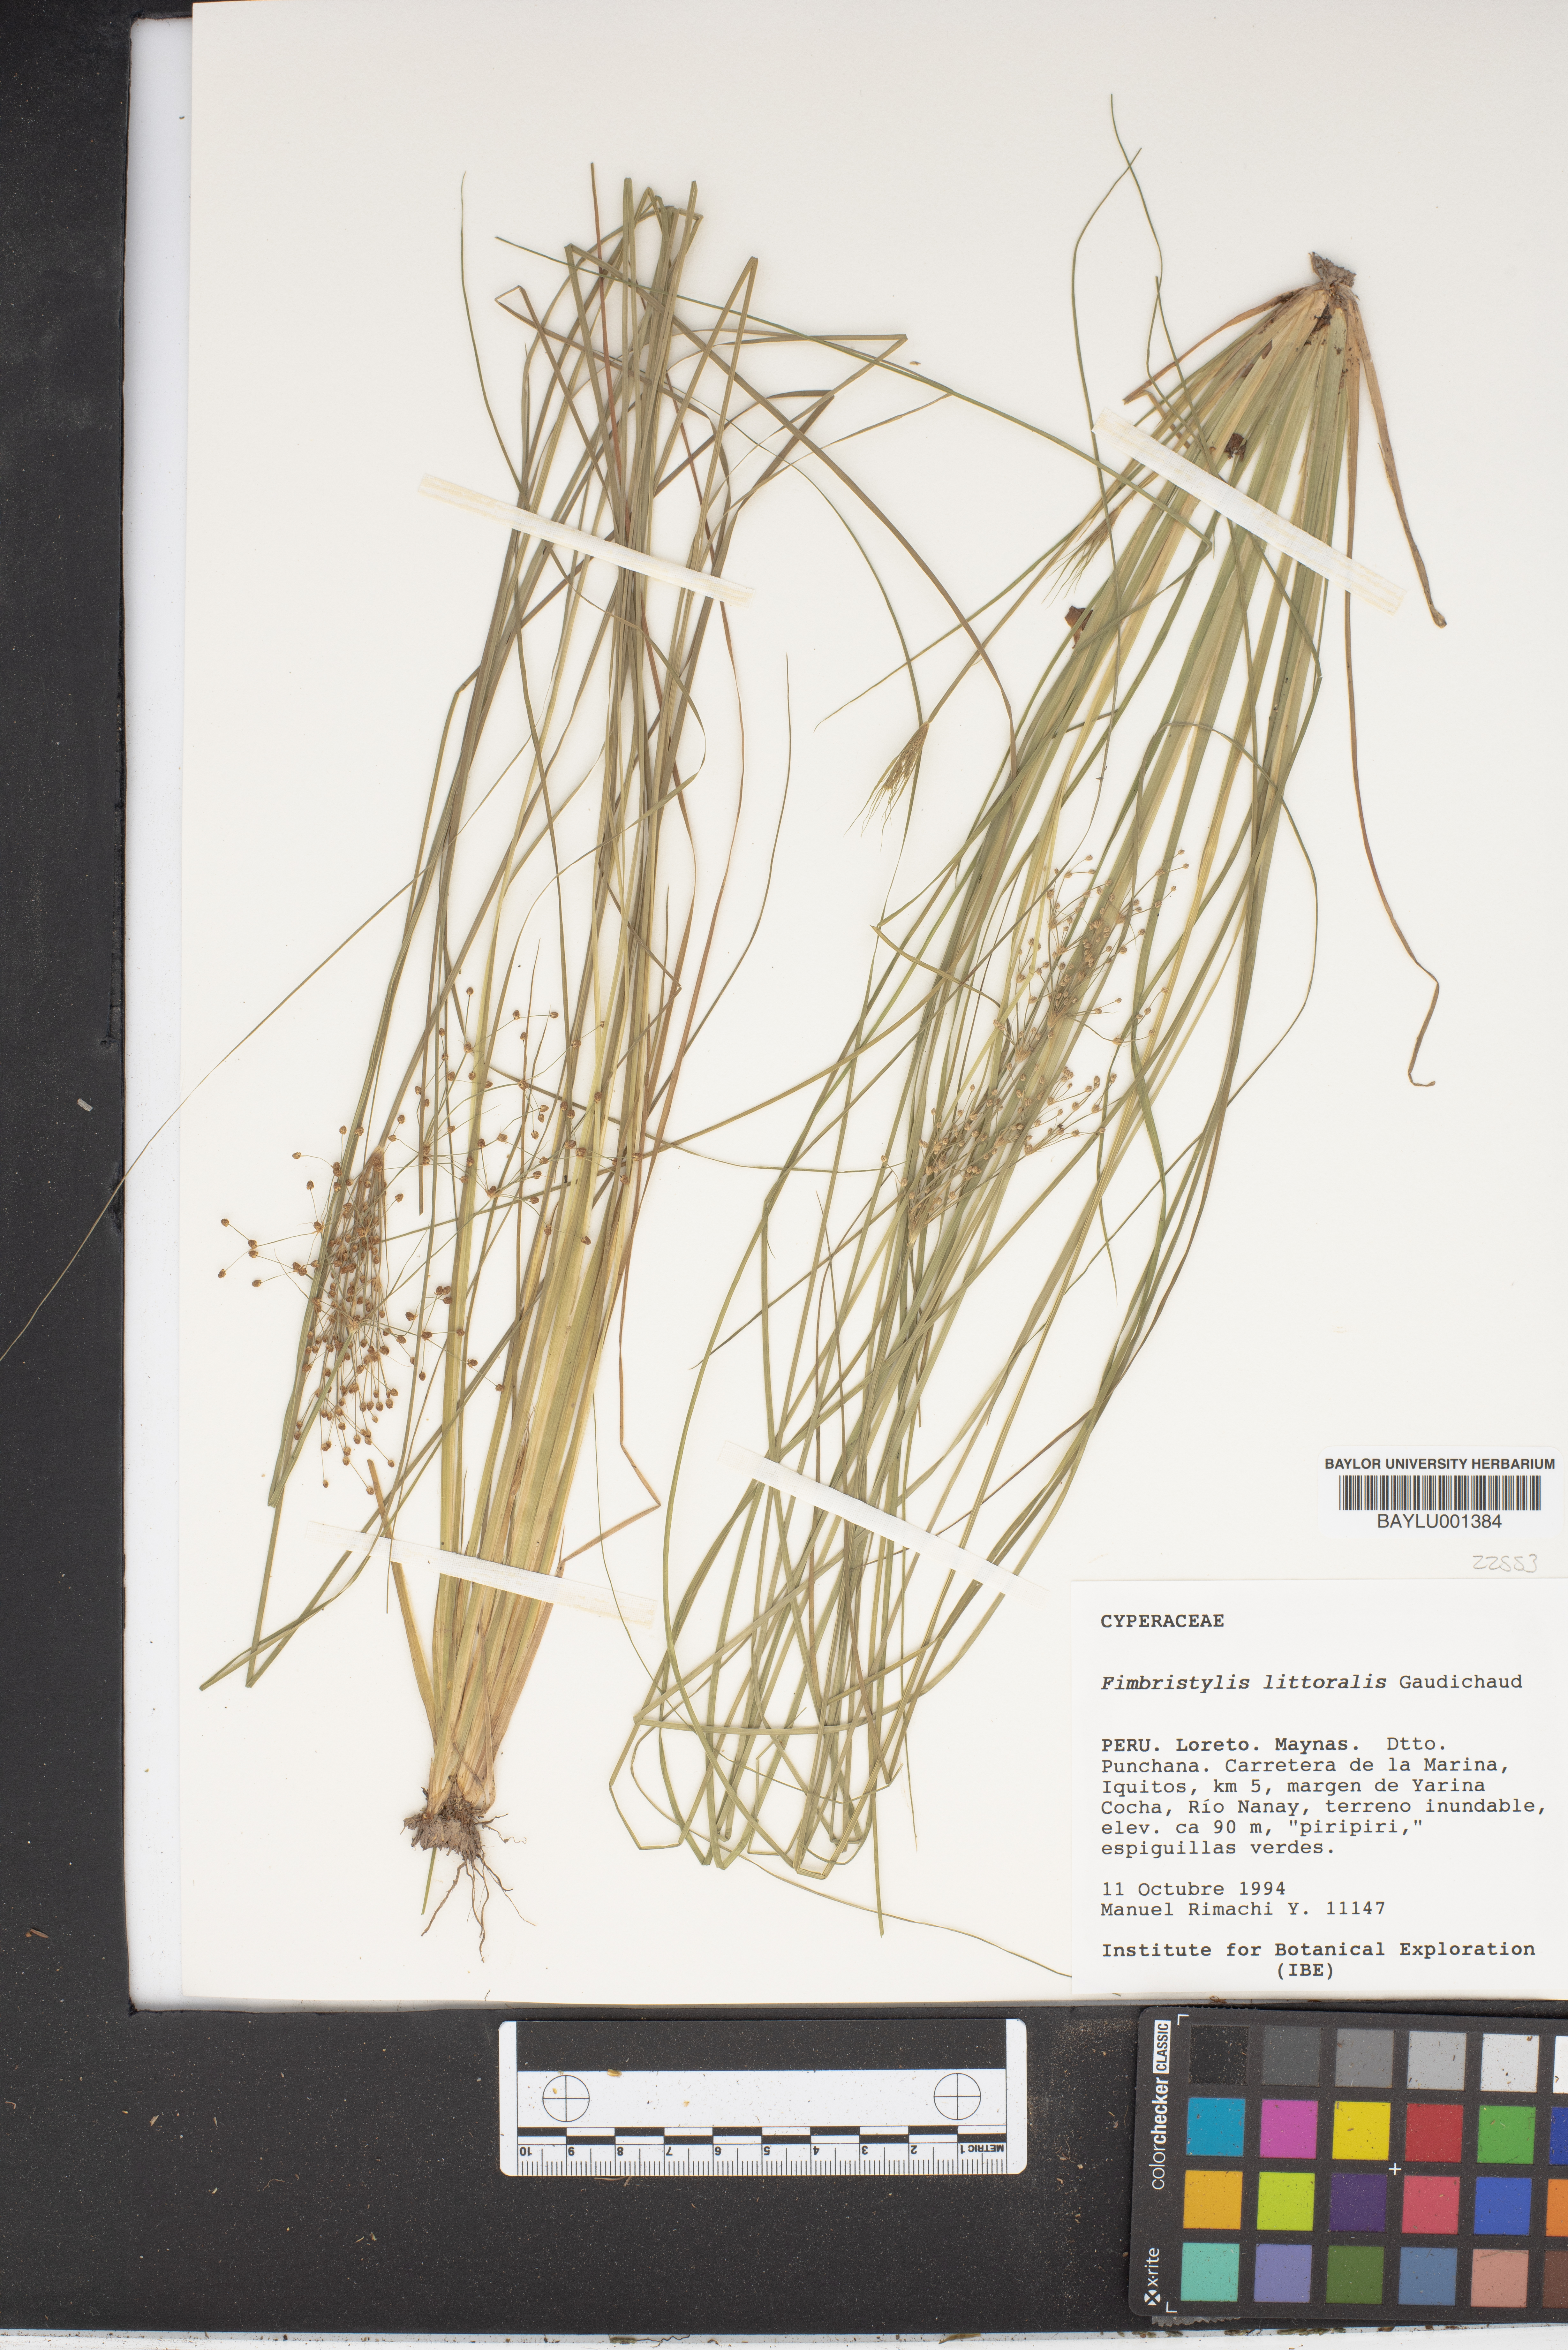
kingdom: Plantae
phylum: Tracheophyta
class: Liliopsida
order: Poales
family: Cyperaceae
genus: Fimbristylis
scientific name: Fimbristylis littoralis
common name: Fimbry
